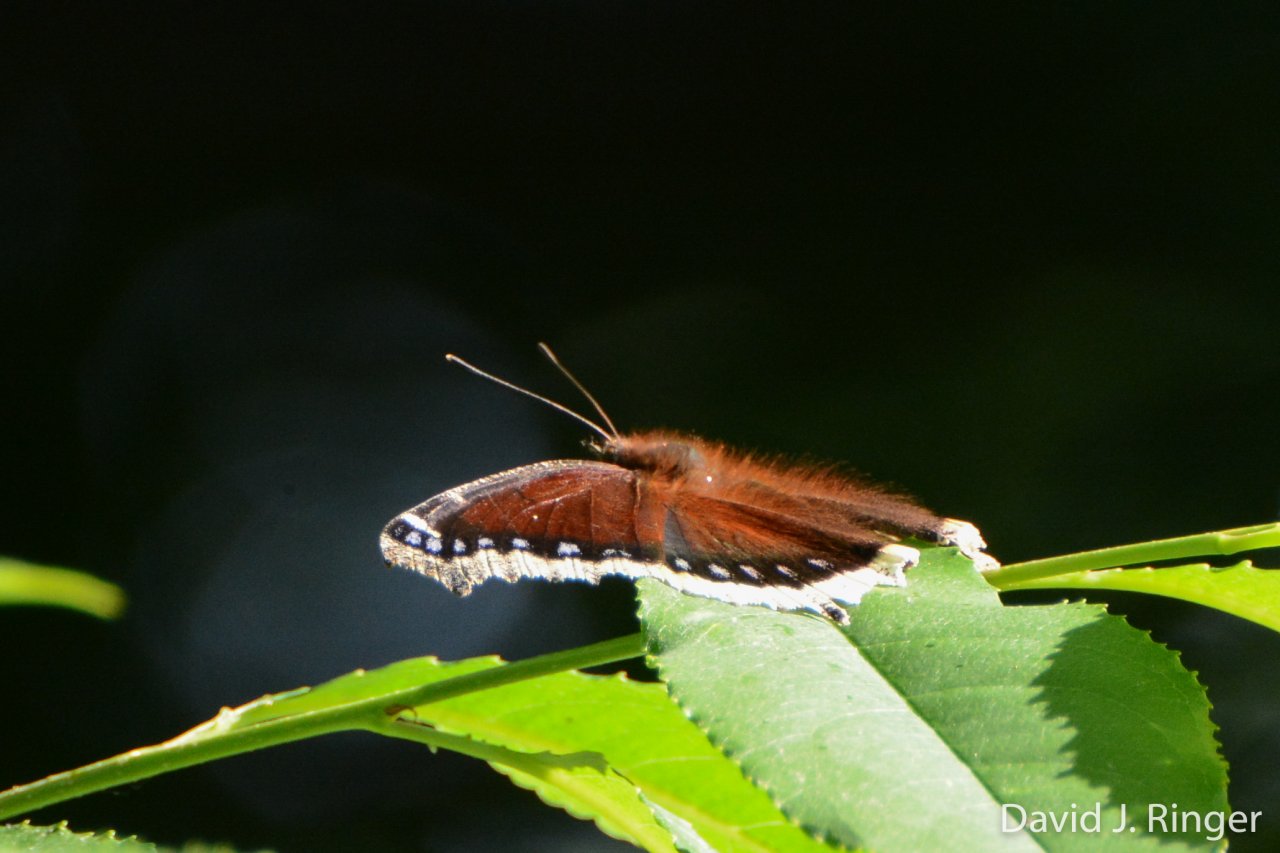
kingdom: Animalia
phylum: Arthropoda
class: Insecta
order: Lepidoptera
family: Nymphalidae
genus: Nymphalis
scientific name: Nymphalis antiopa
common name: Mourning Cloak
